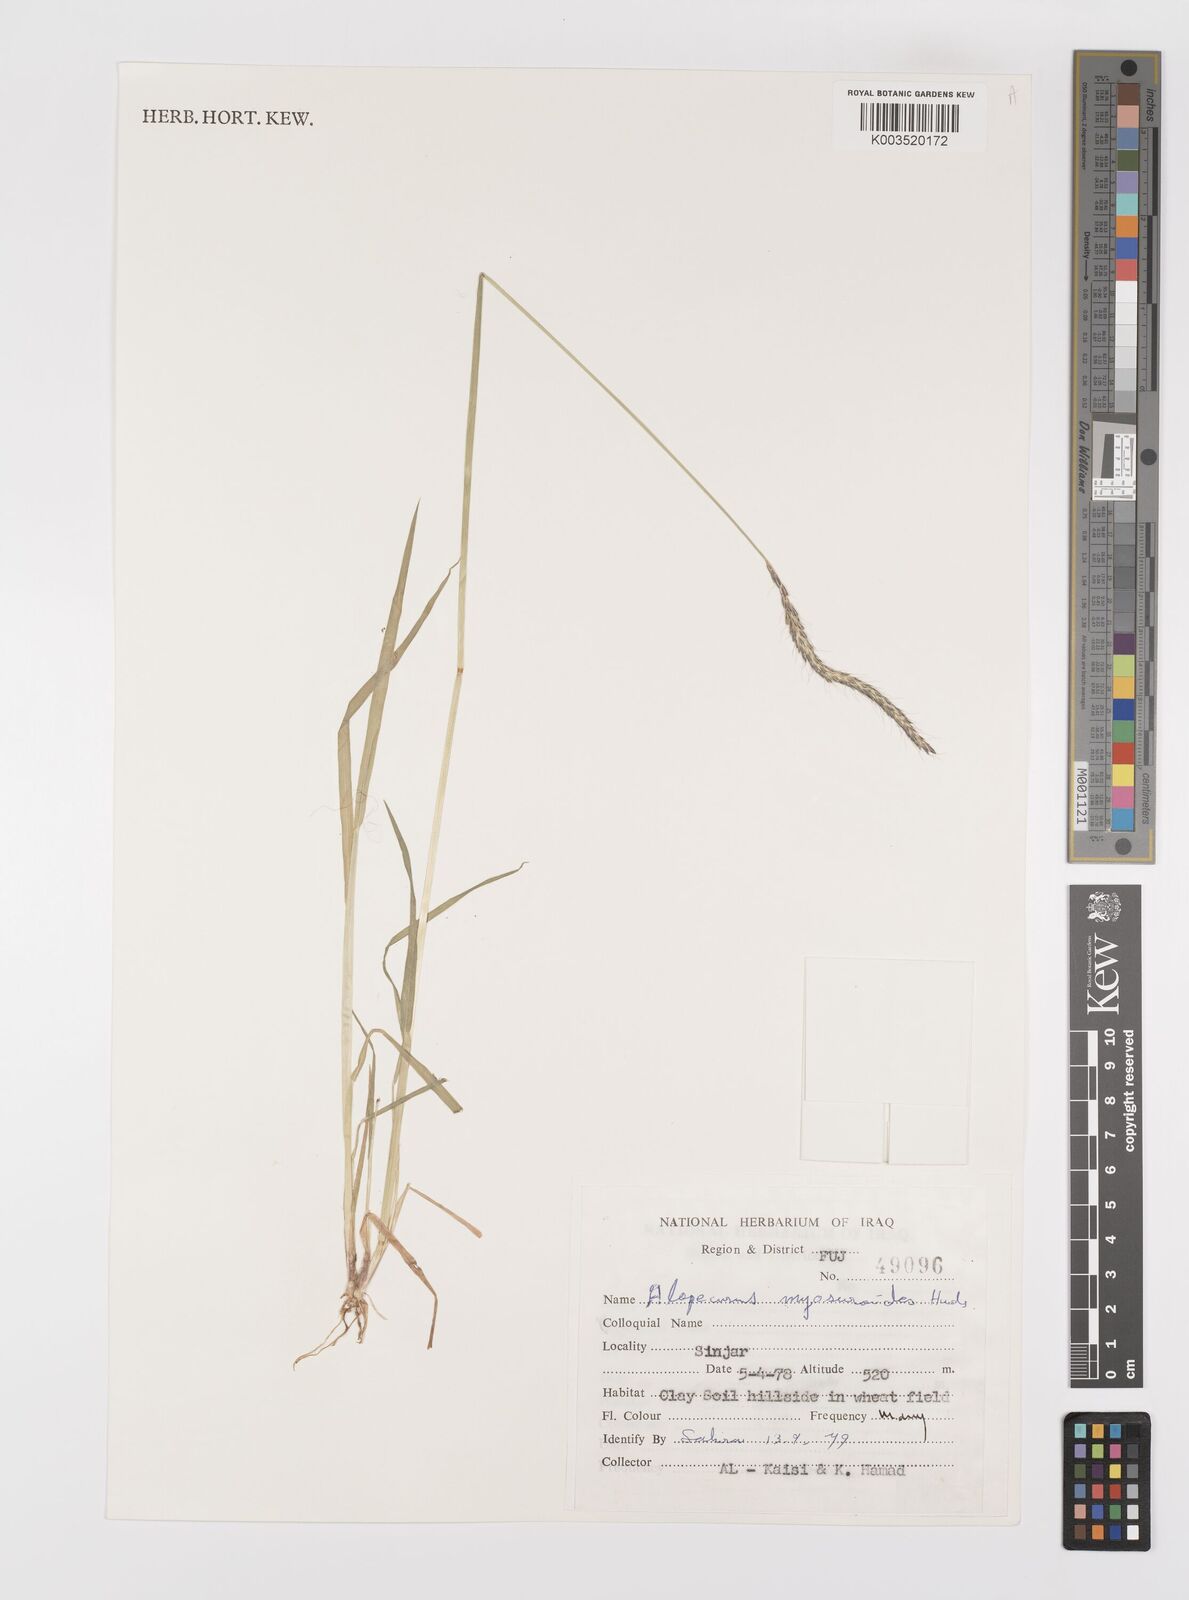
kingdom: Plantae
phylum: Tracheophyta
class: Liliopsida
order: Poales
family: Poaceae
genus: Alopecurus
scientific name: Alopecurus myosuroides
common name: Black-grass
